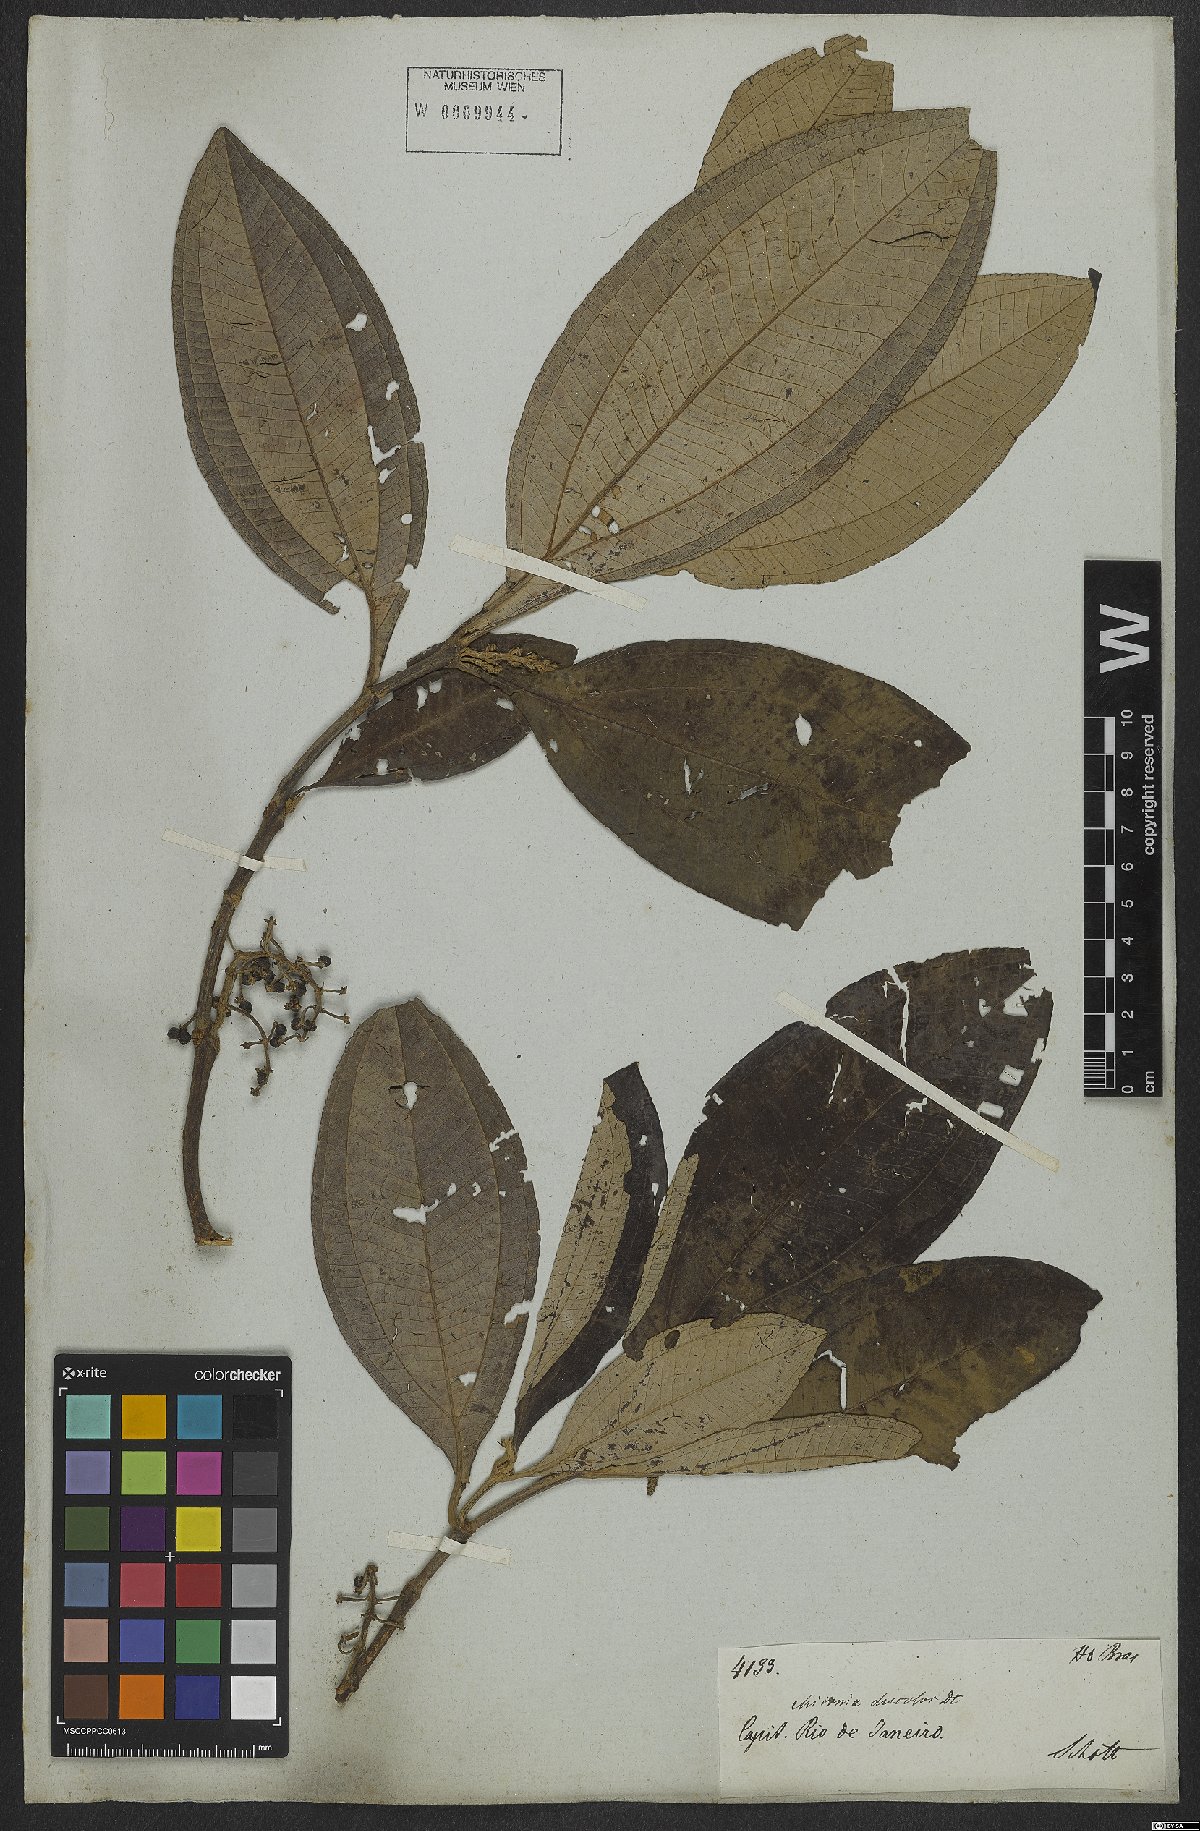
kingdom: Plantae
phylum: Tracheophyta
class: Magnoliopsida
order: Myrtales
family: Melastomataceae
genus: Miconia
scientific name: Miconia discolor
